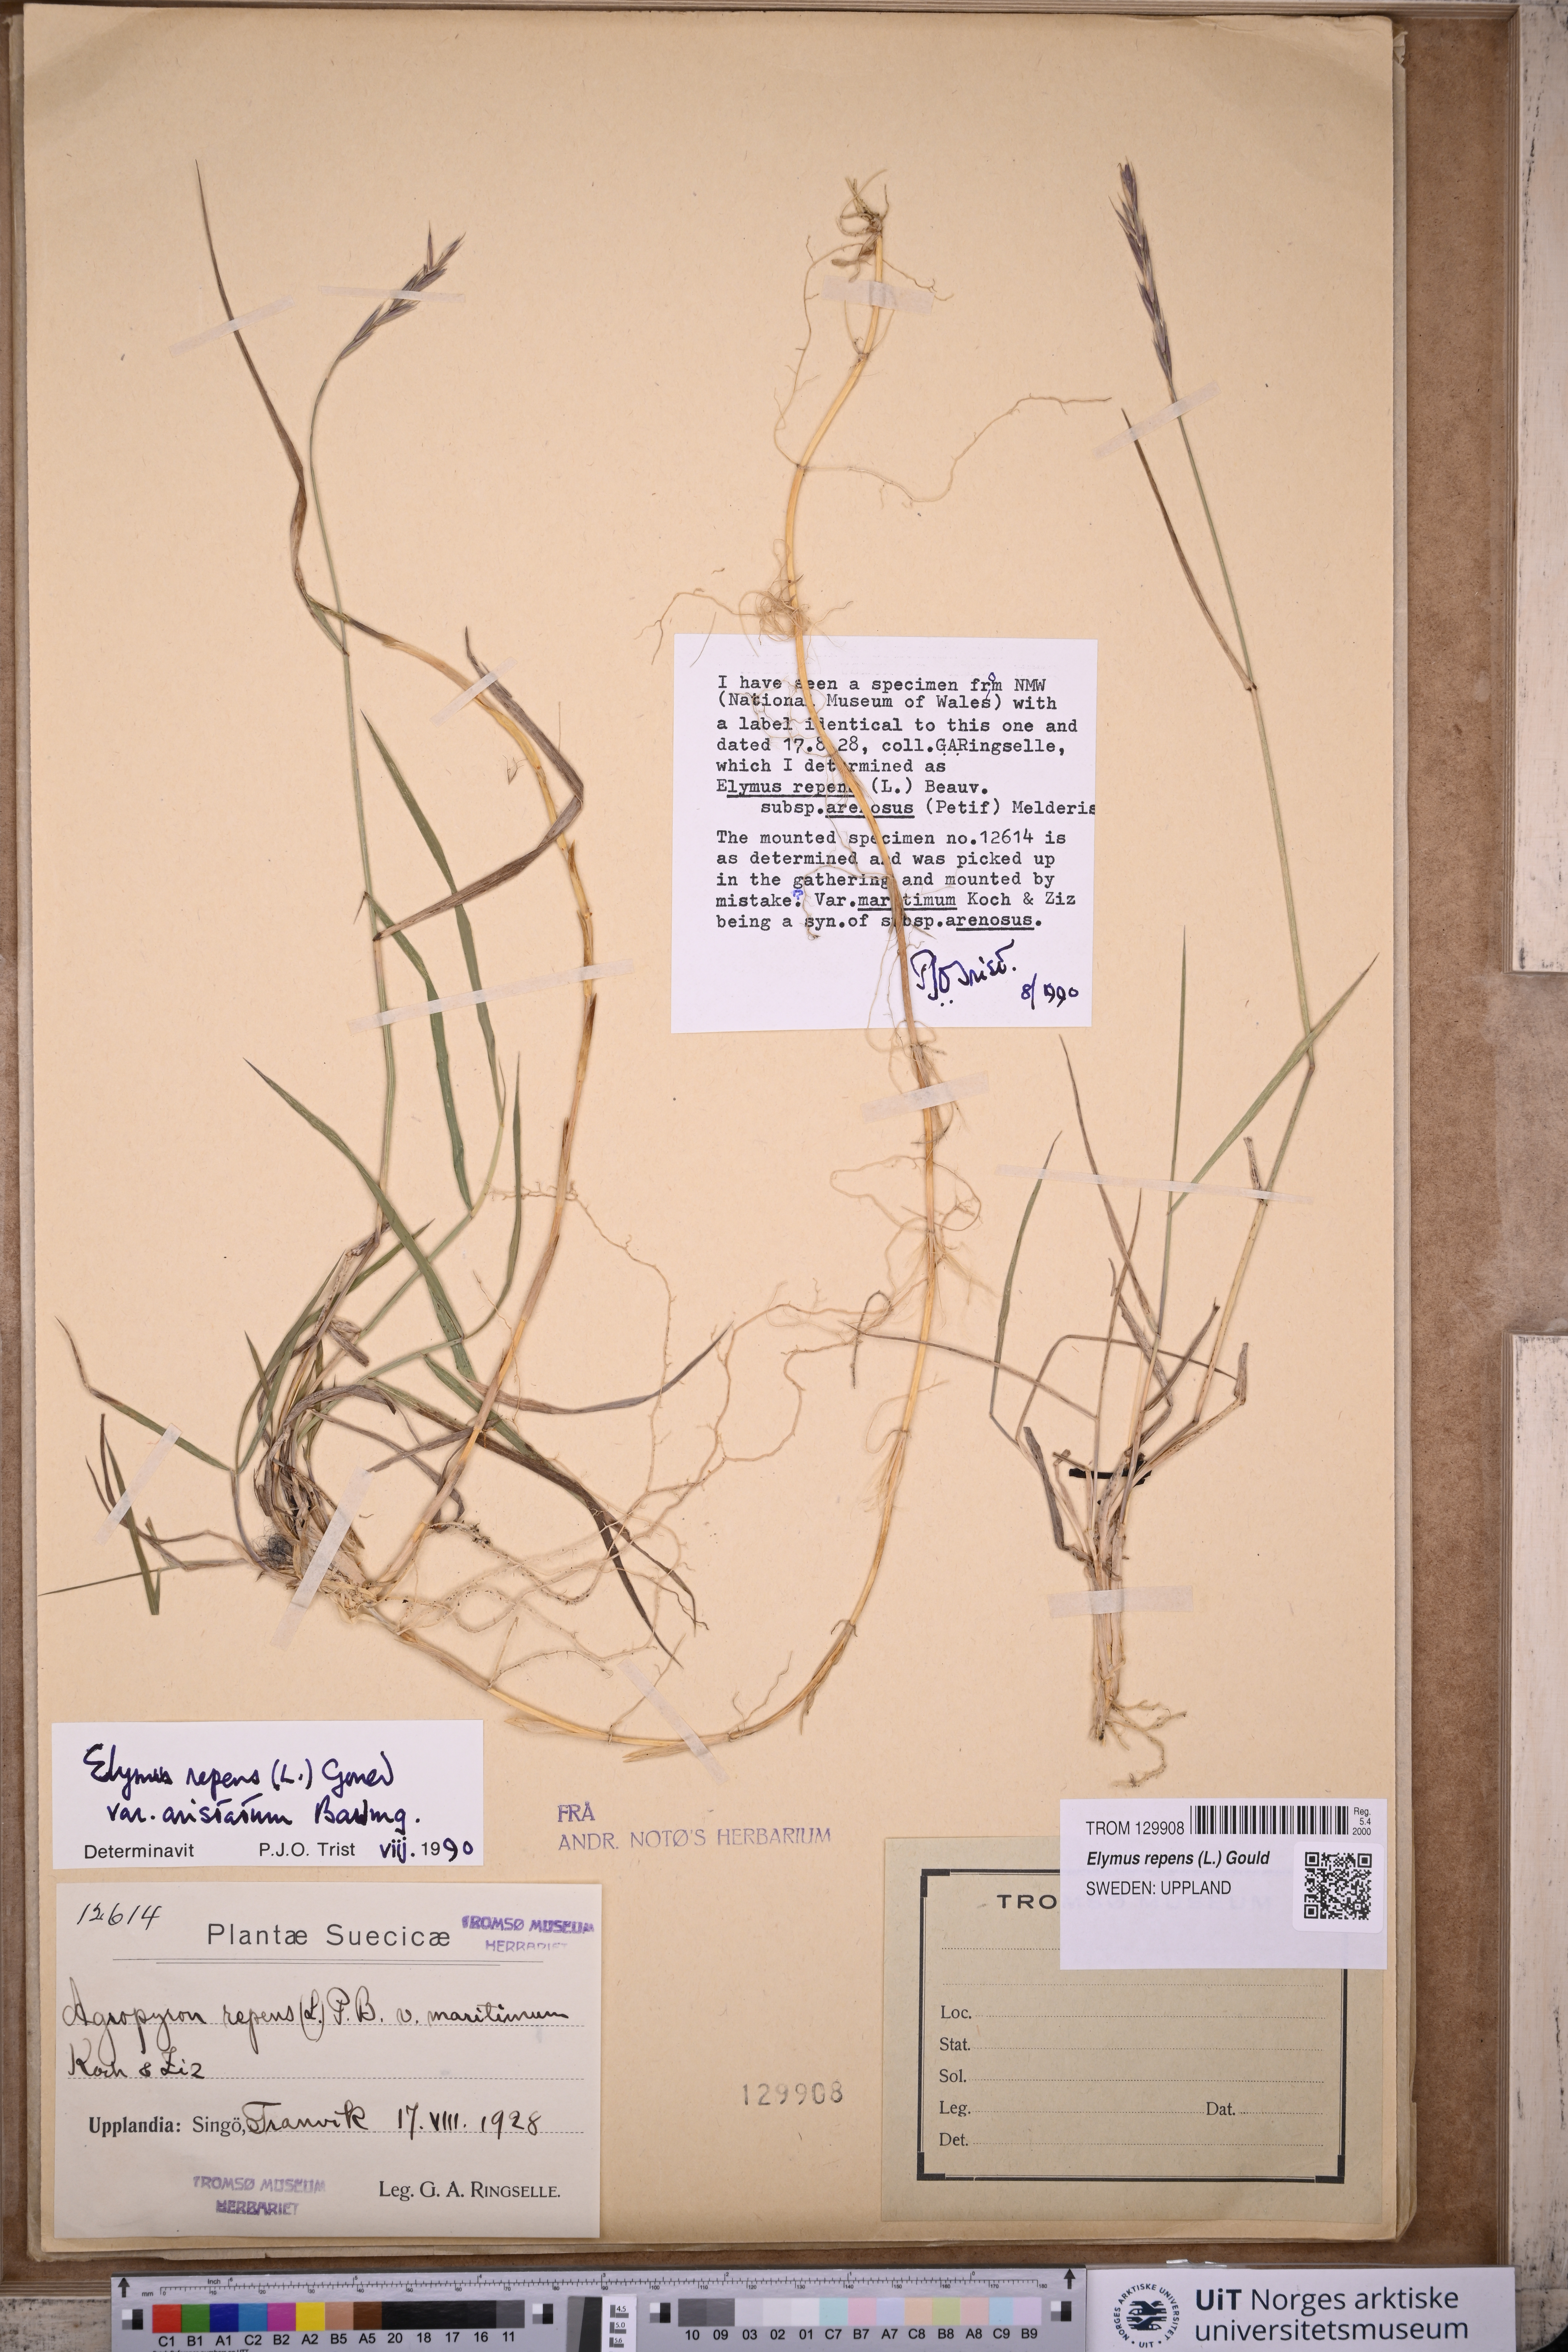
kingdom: Plantae
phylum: Tracheophyta
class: Liliopsida
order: Poales
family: Poaceae
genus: Elymus
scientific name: Elymus repens
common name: Quackgrass
